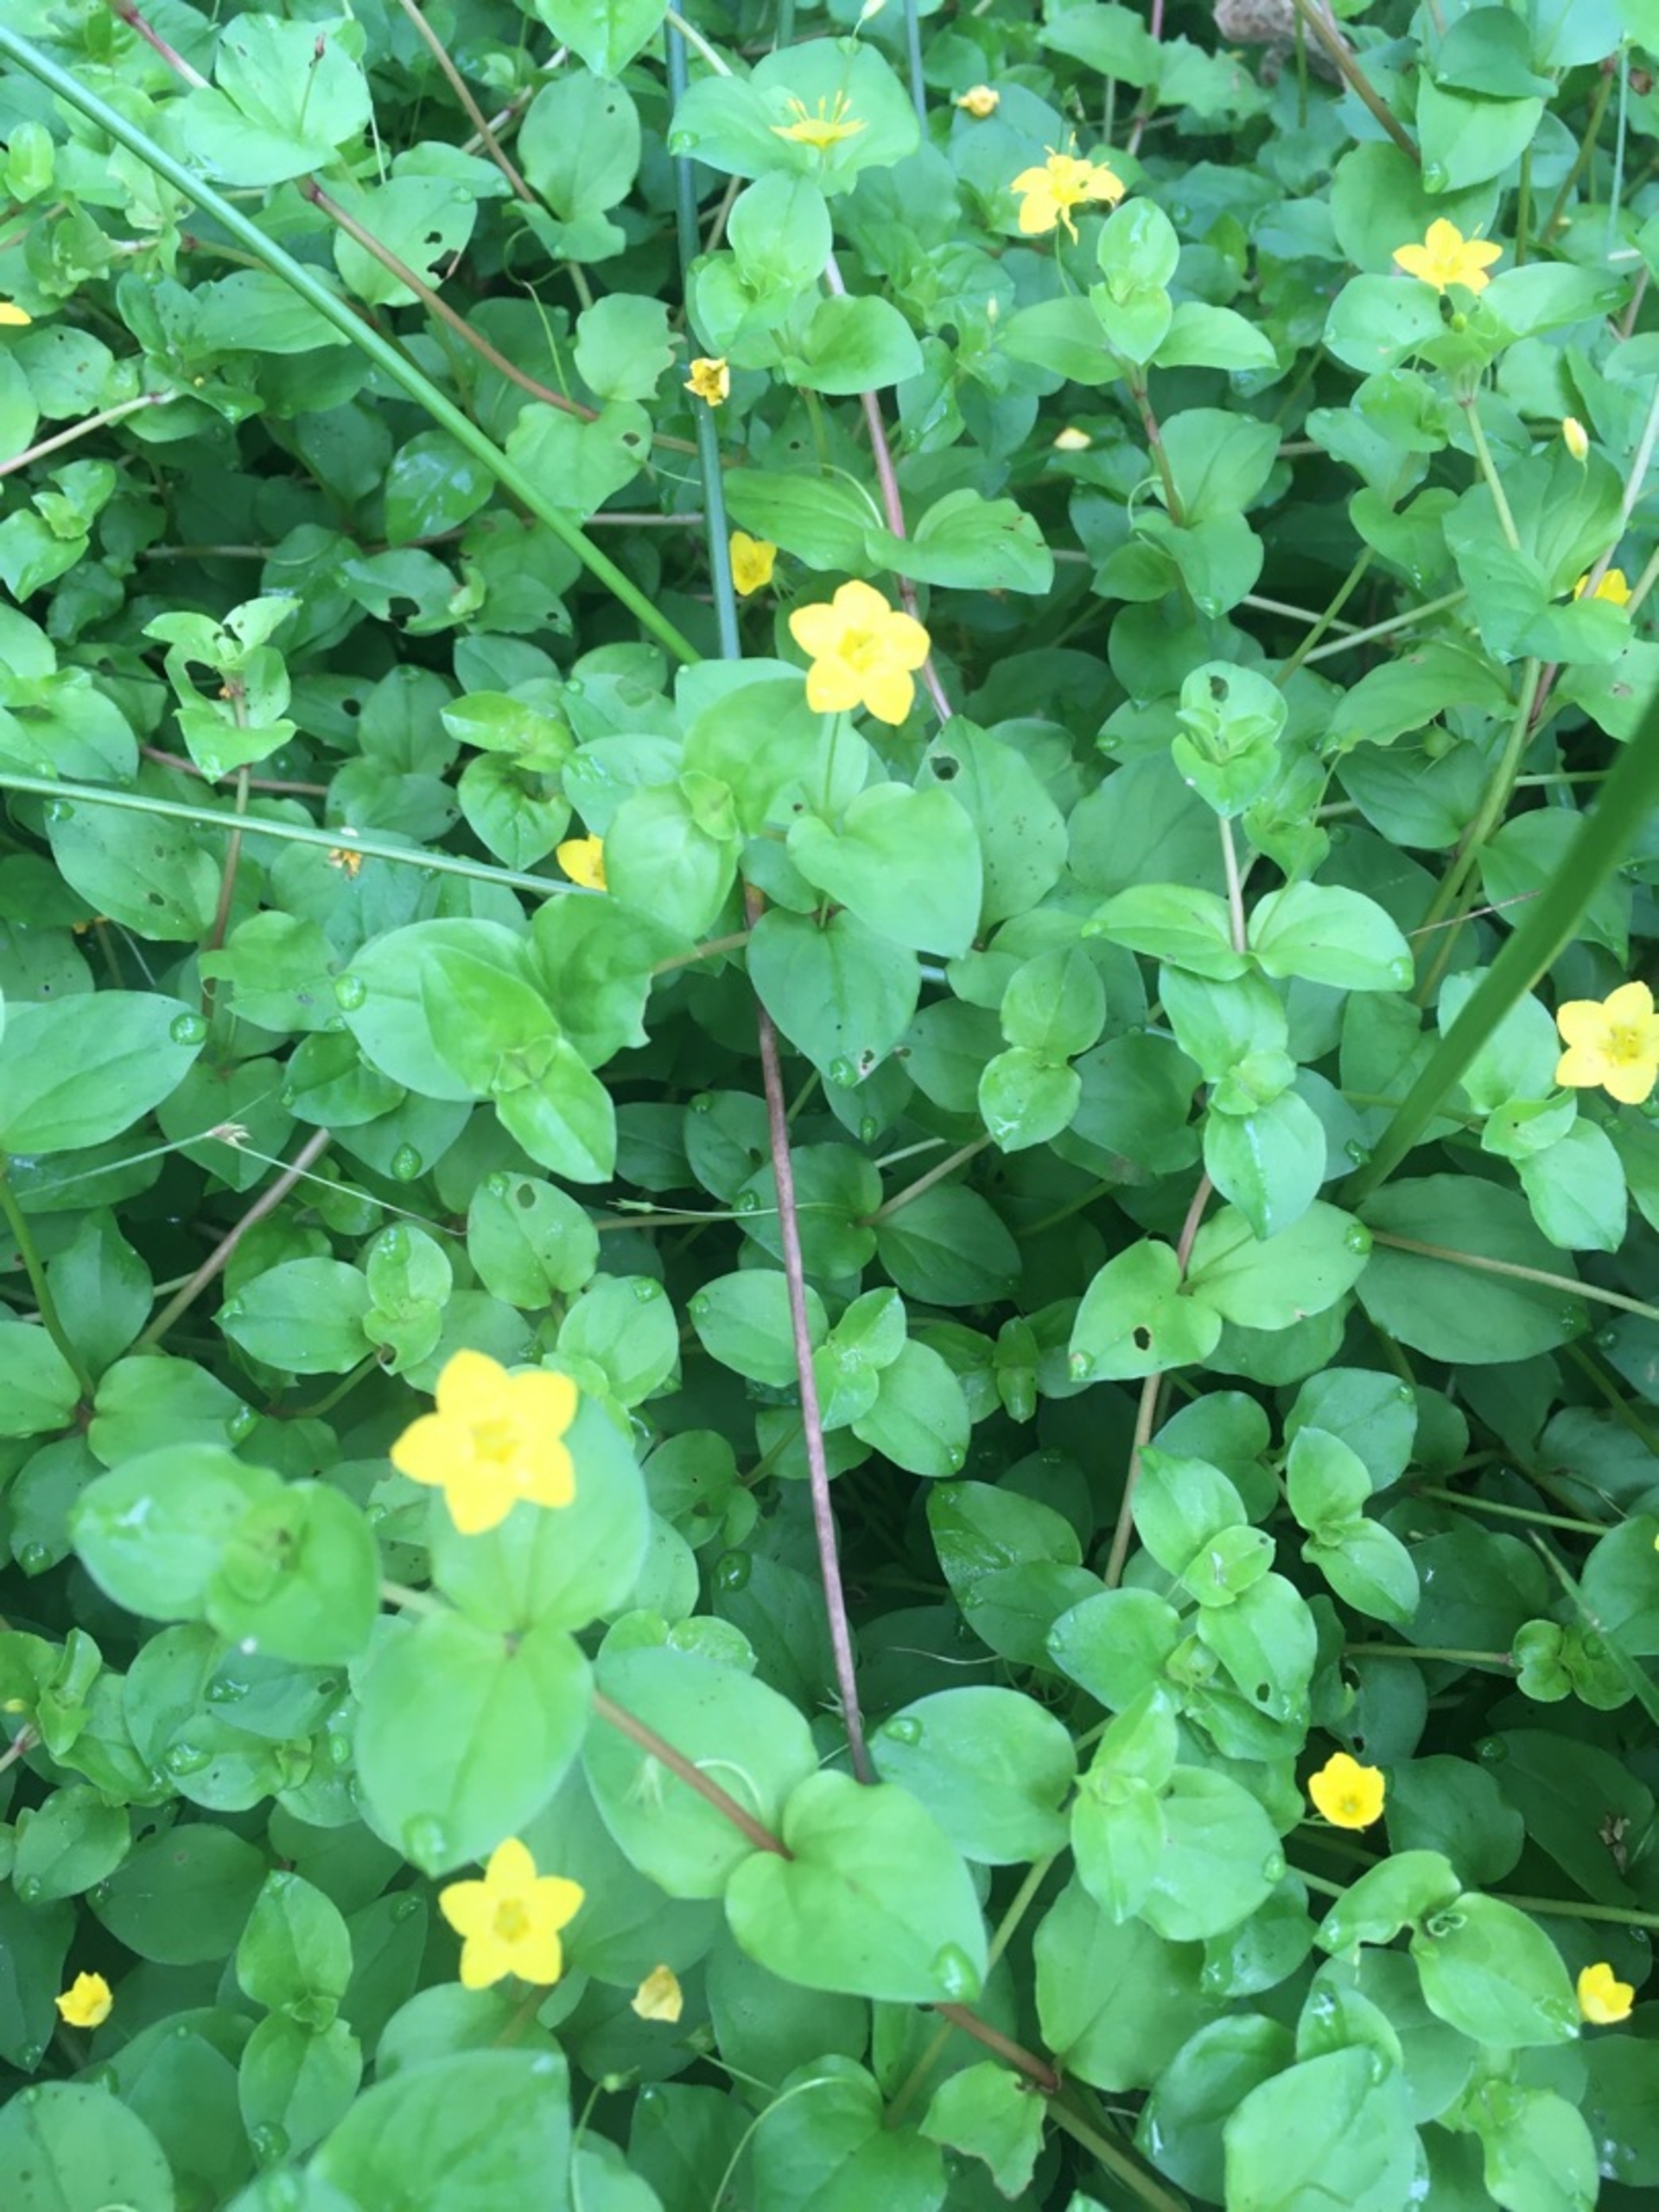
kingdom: Plantae
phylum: Tracheophyta
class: Magnoliopsida
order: Ericales
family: Primulaceae
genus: Lysimachia
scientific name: Lysimachia nemorum
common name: Lund-fredløs
